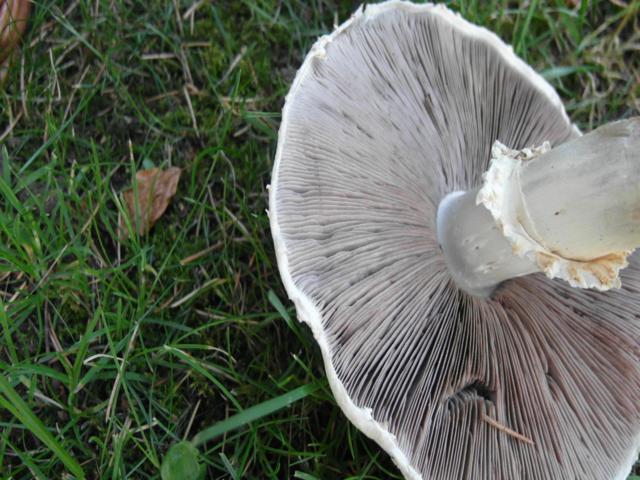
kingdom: Fungi
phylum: Basidiomycota
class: Agaricomycetes
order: Agaricales
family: Agaricaceae
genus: Agaricus
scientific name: Agaricus arvensis
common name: ager-champignon
